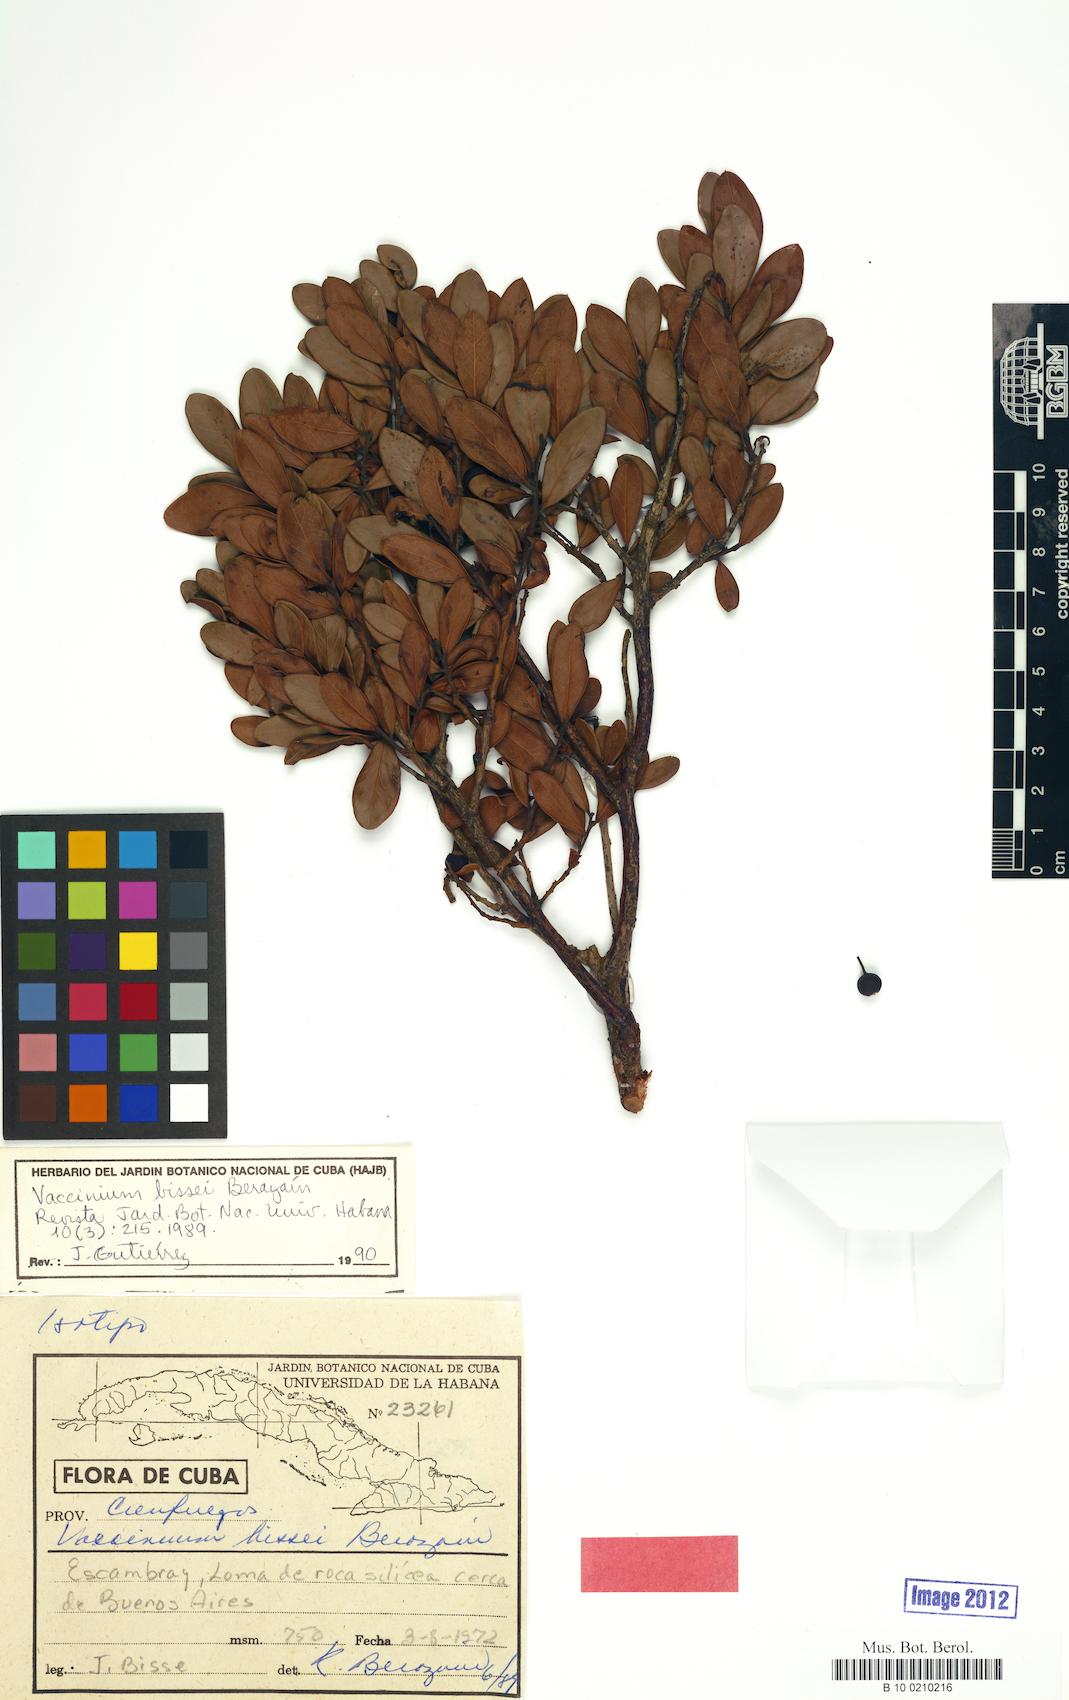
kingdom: Plantae
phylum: Tracheophyta
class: Magnoliopsida
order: Ericales
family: Ericaceae
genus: Vaccinium
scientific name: Vaccinium bissei
